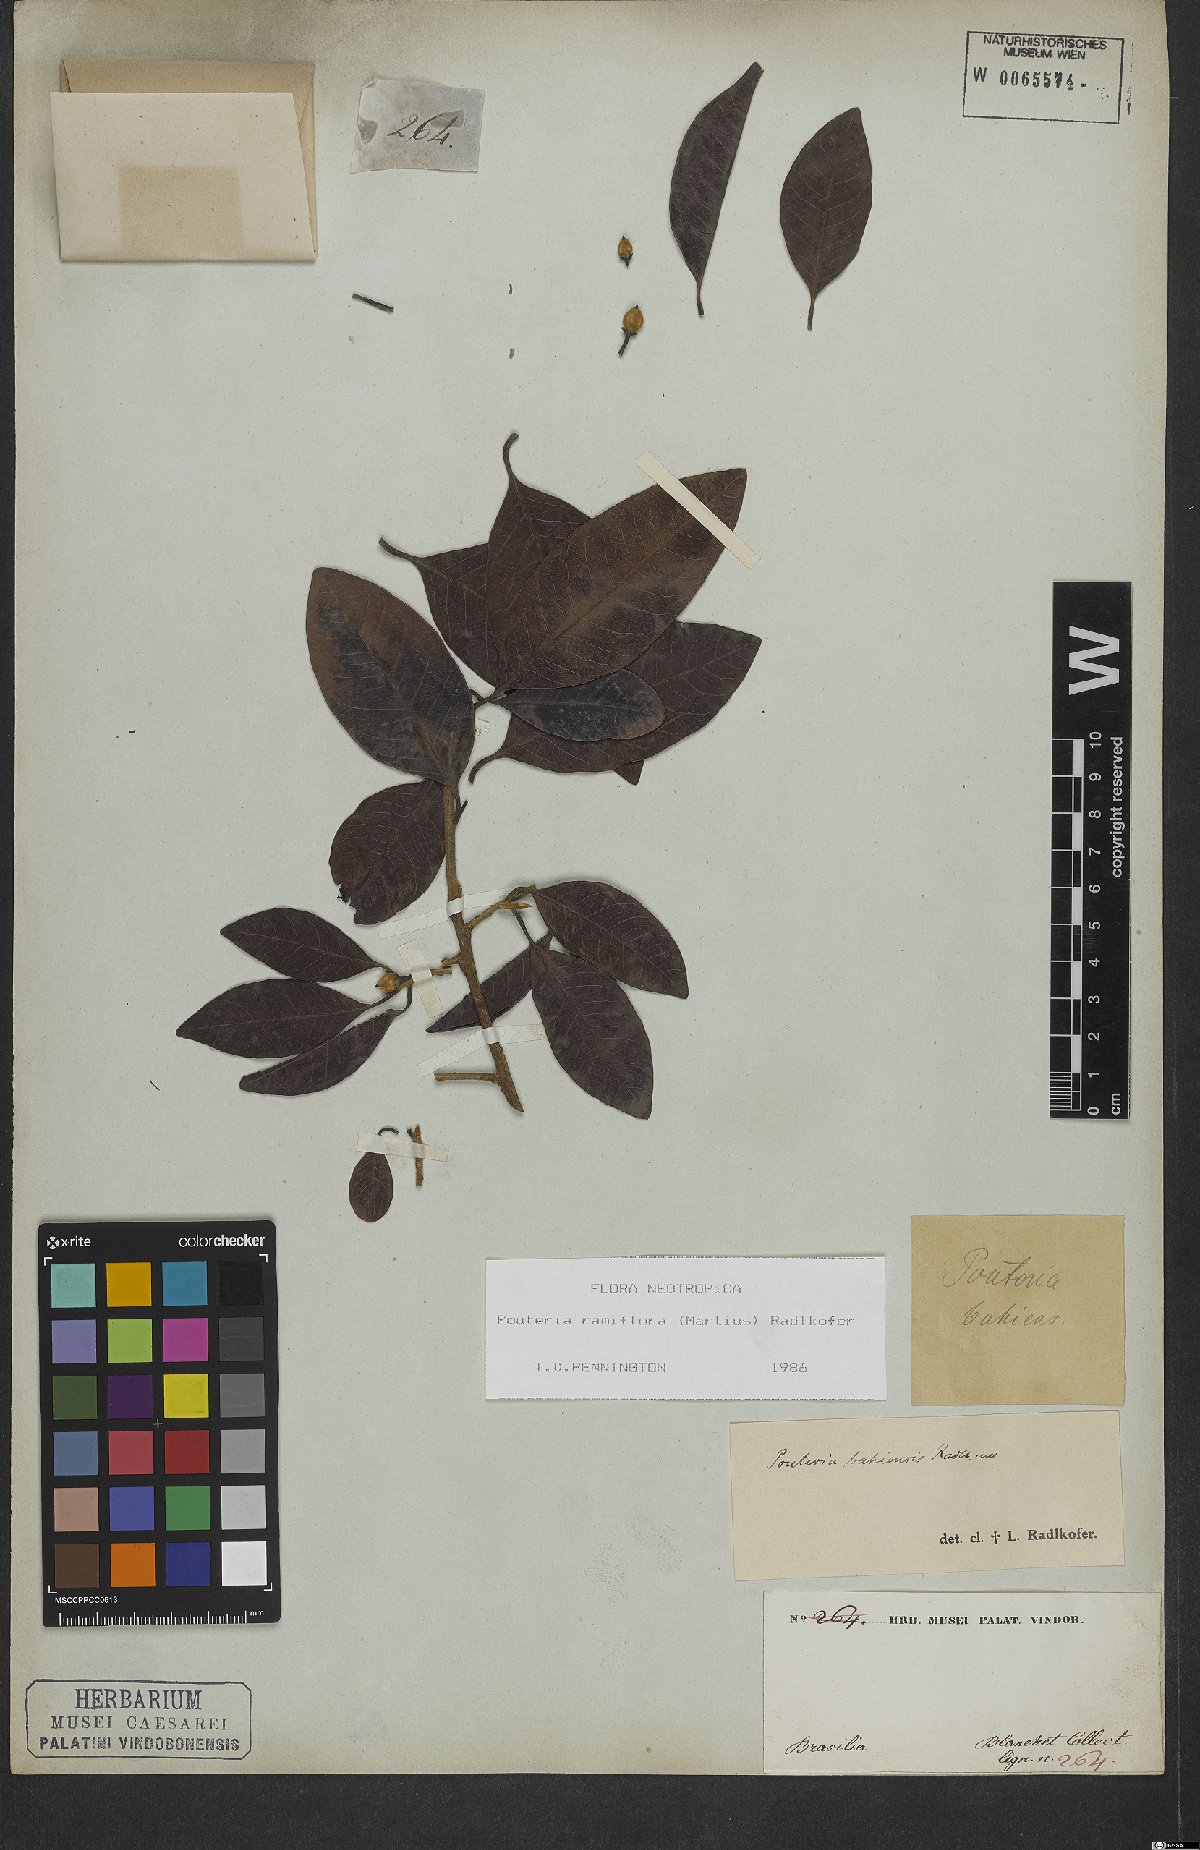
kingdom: Plantae
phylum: Tracheophyta
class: Magnoliopsida
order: Ericales
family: Sapotaceae
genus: Pouteria
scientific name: Pouteria ramiflora
